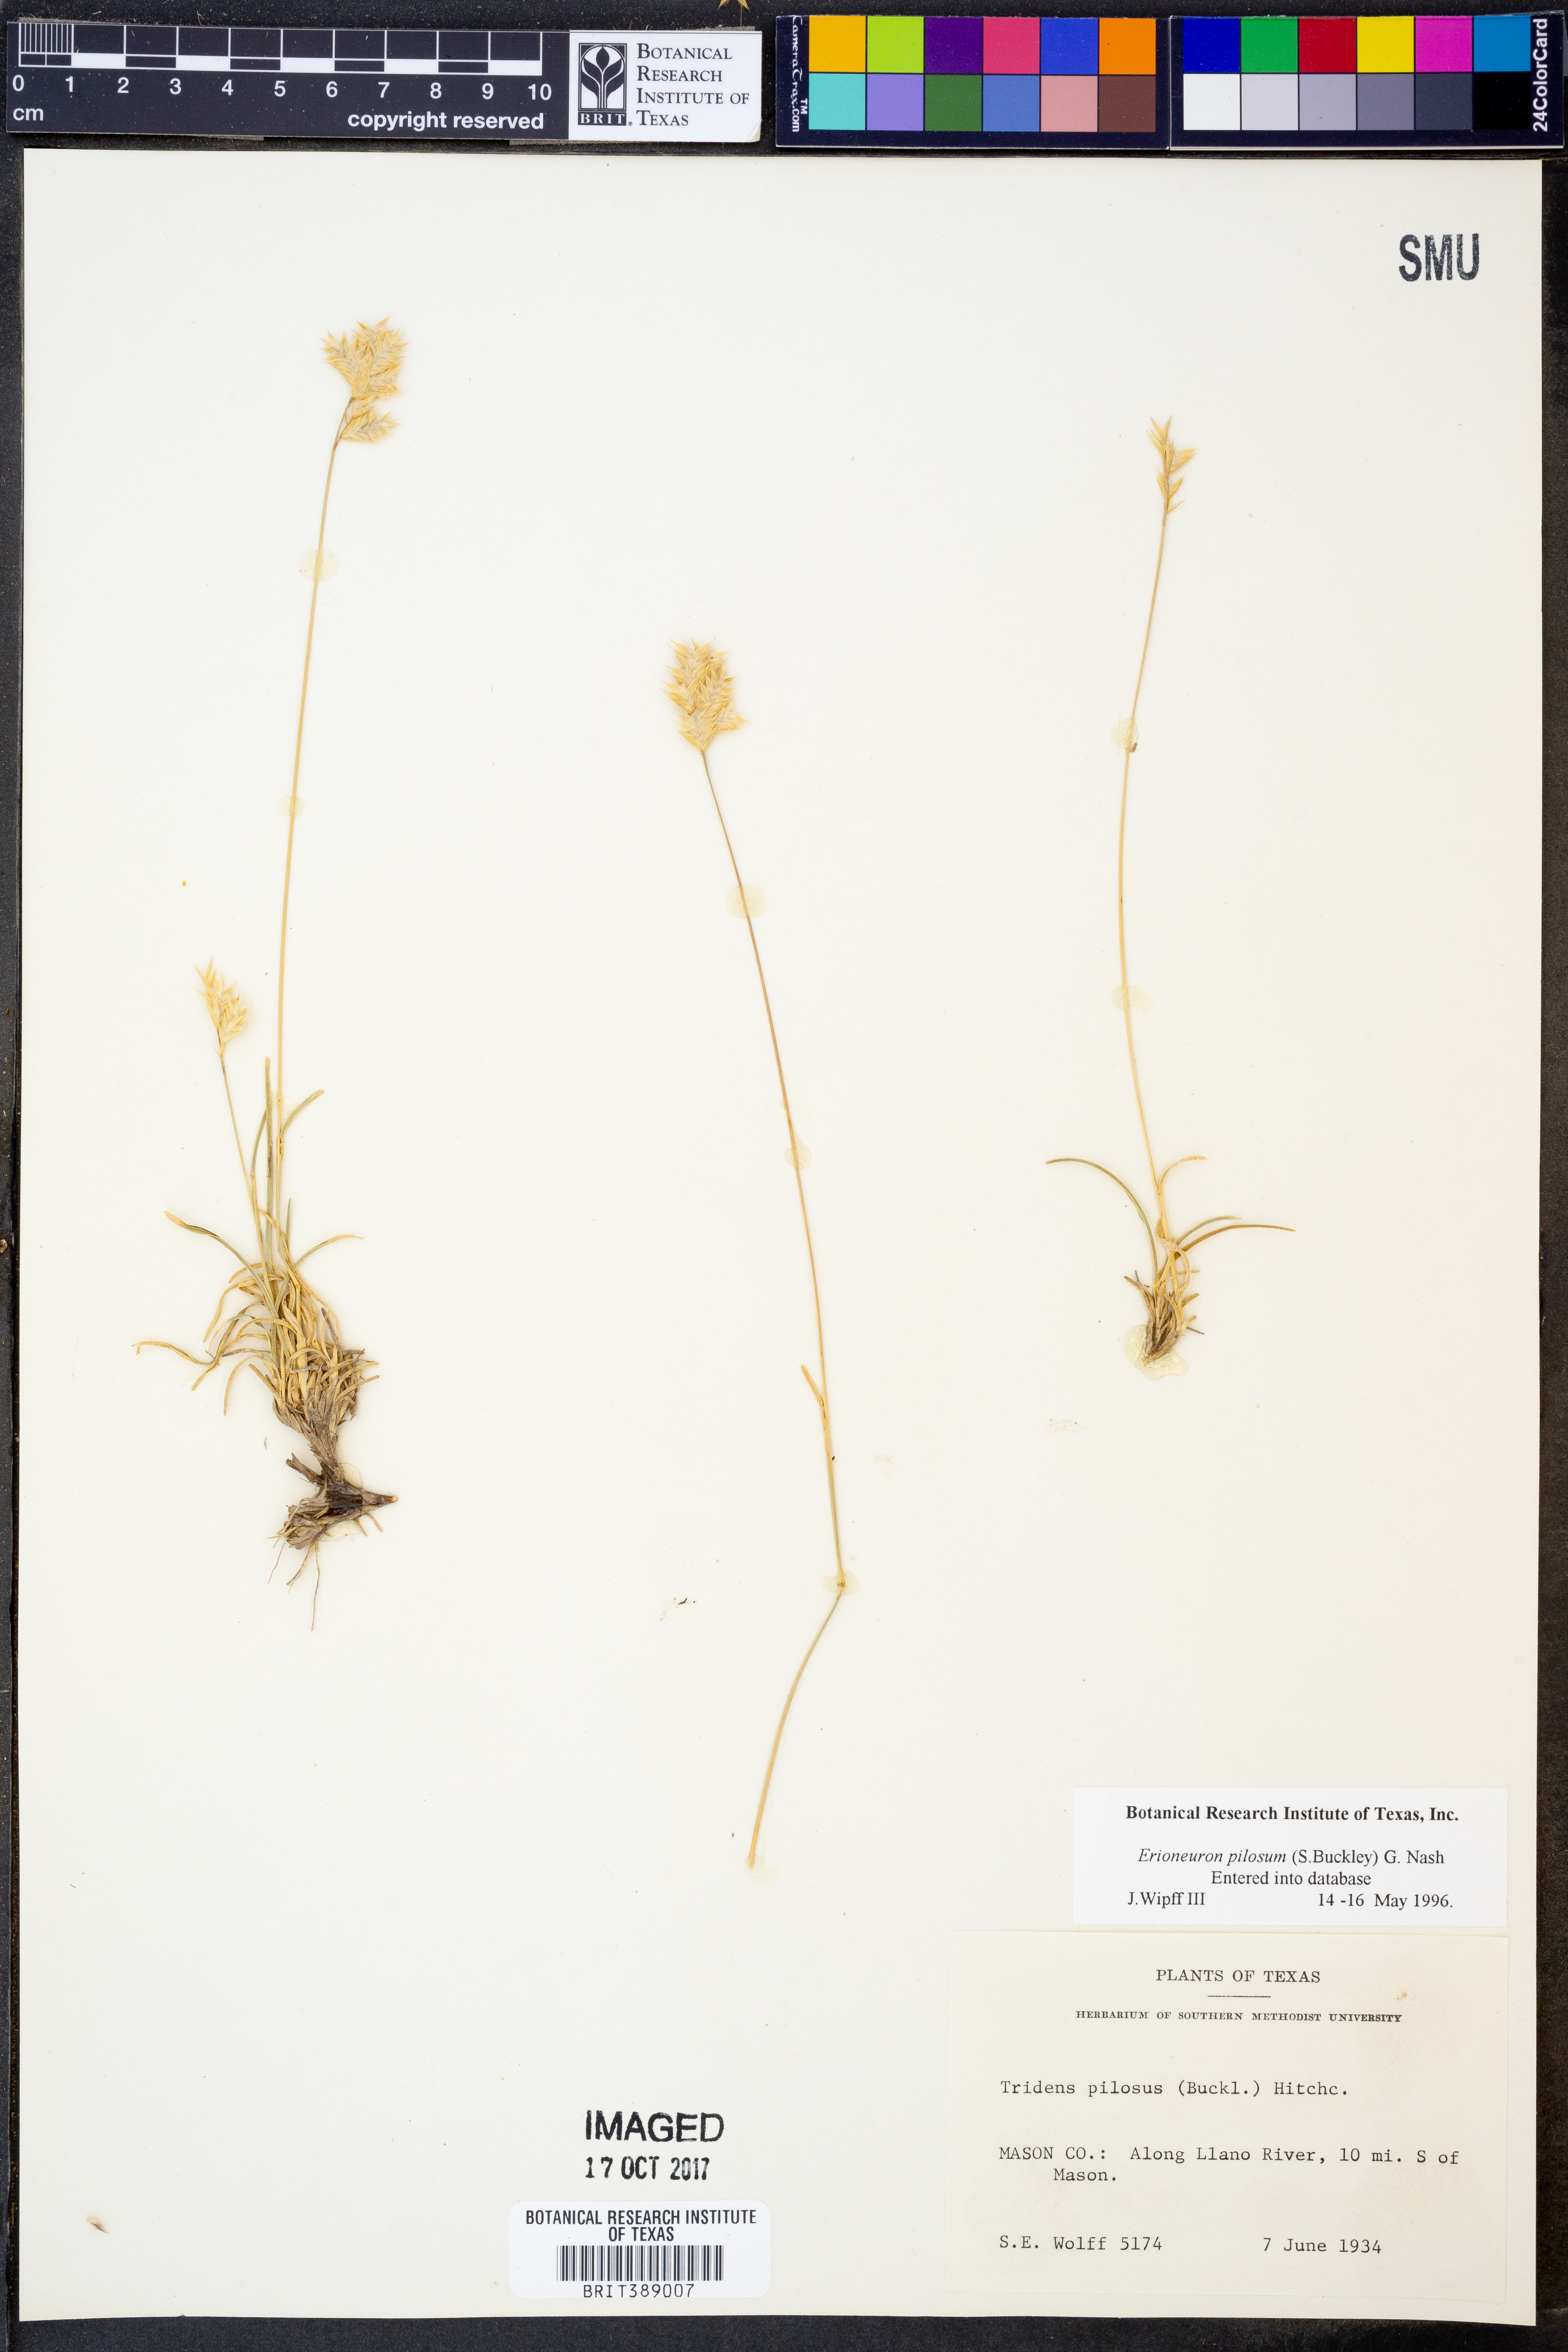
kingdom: Plantae
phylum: Tracheophyta
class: Liliopsida
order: Poales
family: Poaceae
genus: Erioneuron
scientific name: Erioneuron pilosum
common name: Hairy woolly grass
